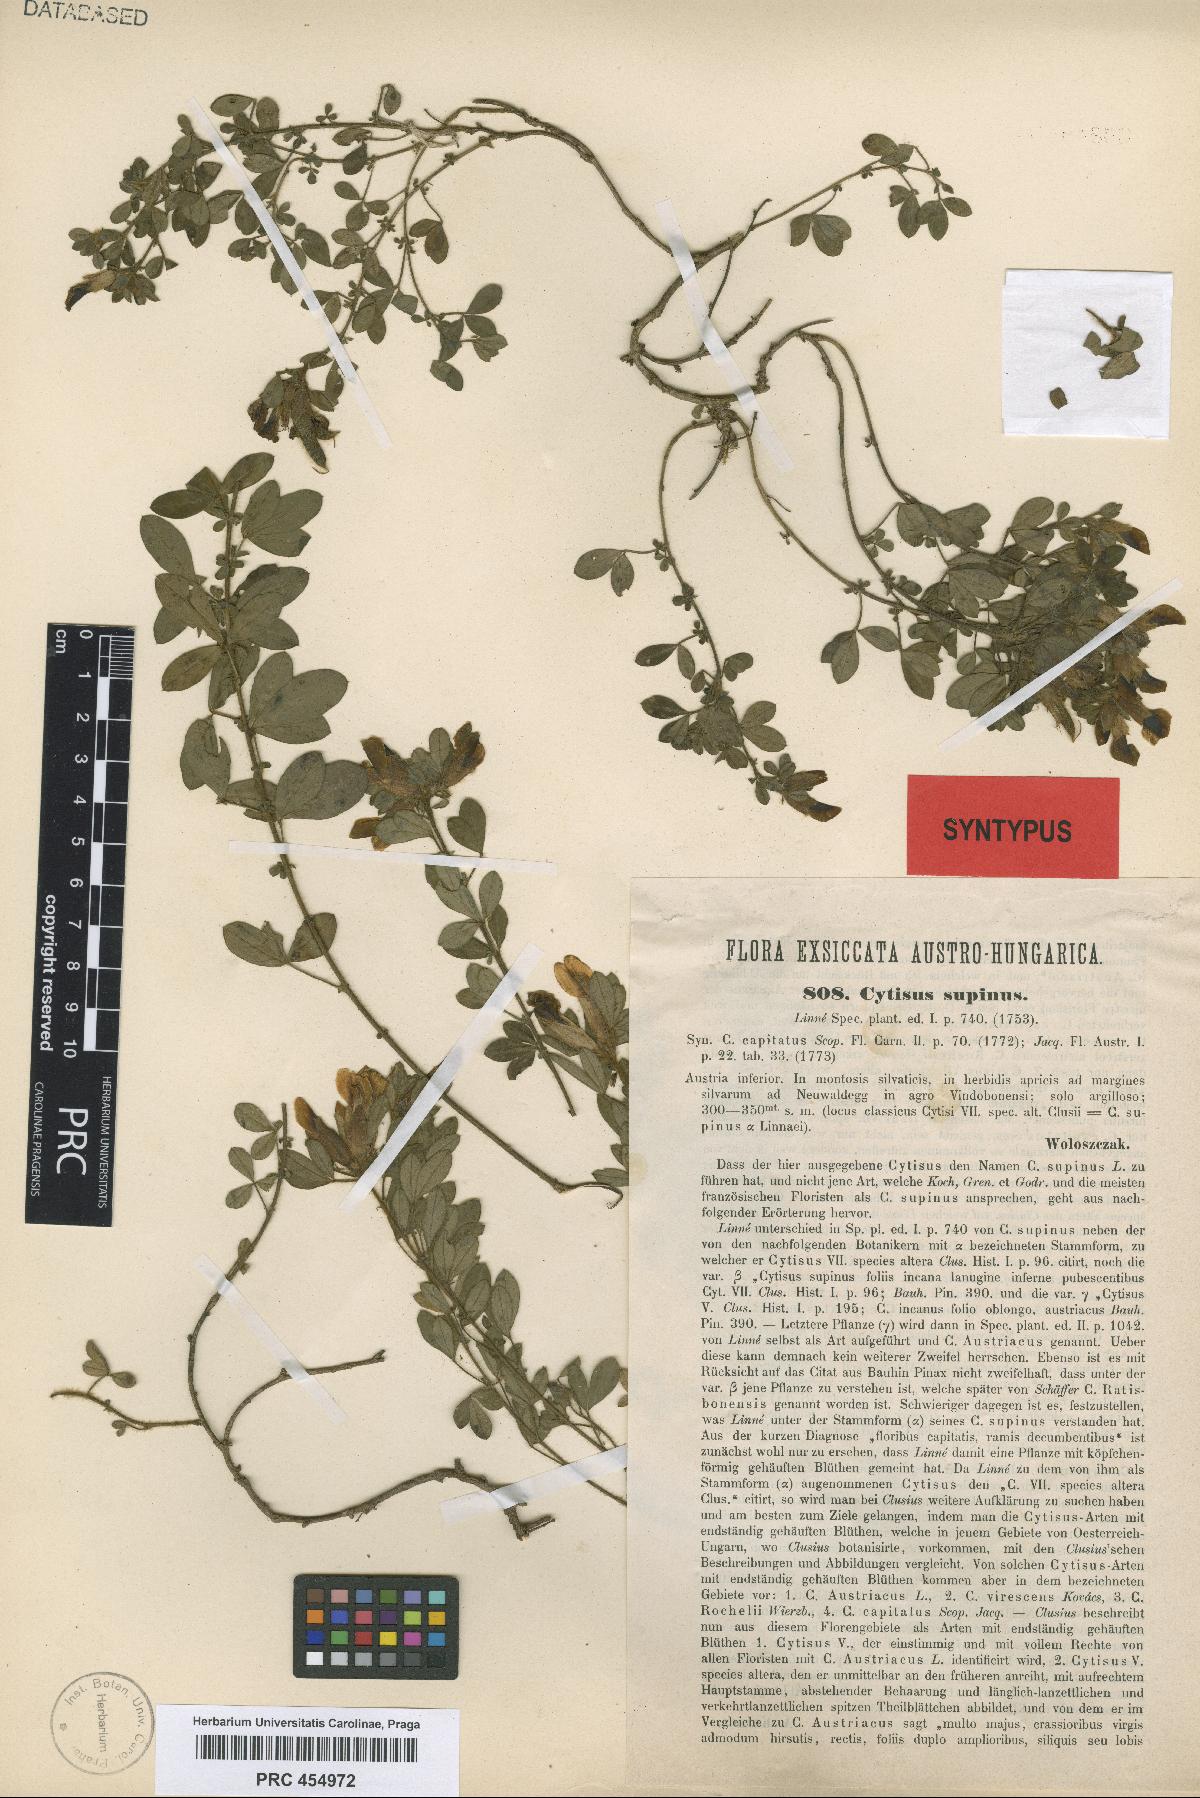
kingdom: Plantae
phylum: Tracheophyta
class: Magnoliopsida
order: Fabales
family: Fabaceae
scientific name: Fabaceae
